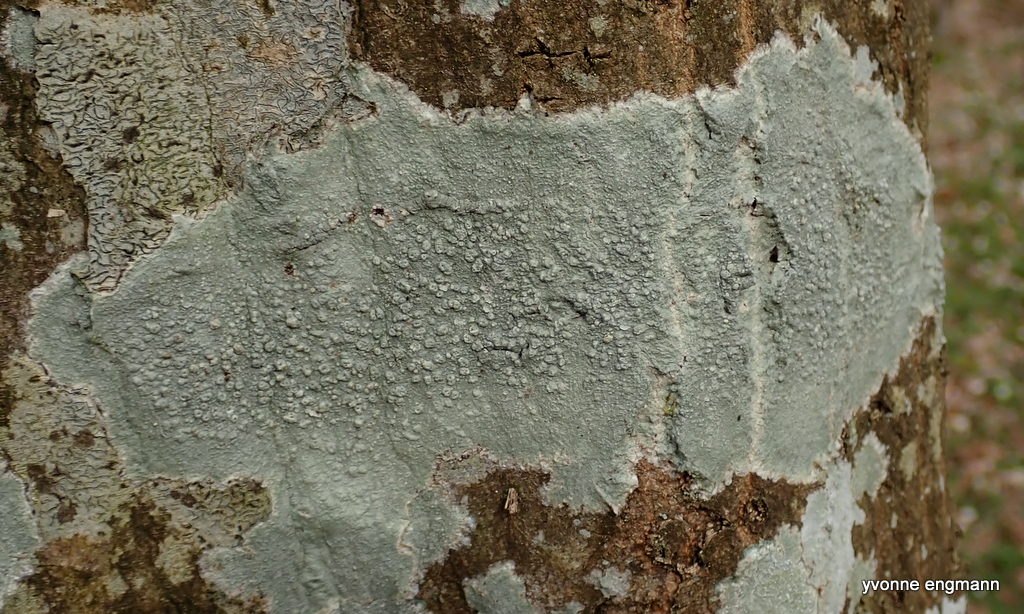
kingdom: Fungi
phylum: Ascomycota
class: Lecanoromycetes
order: Pertusariales
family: Pertusariaceae
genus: Pertusaria
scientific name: Pertusaria pertusa
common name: almindelig prikvortelav
